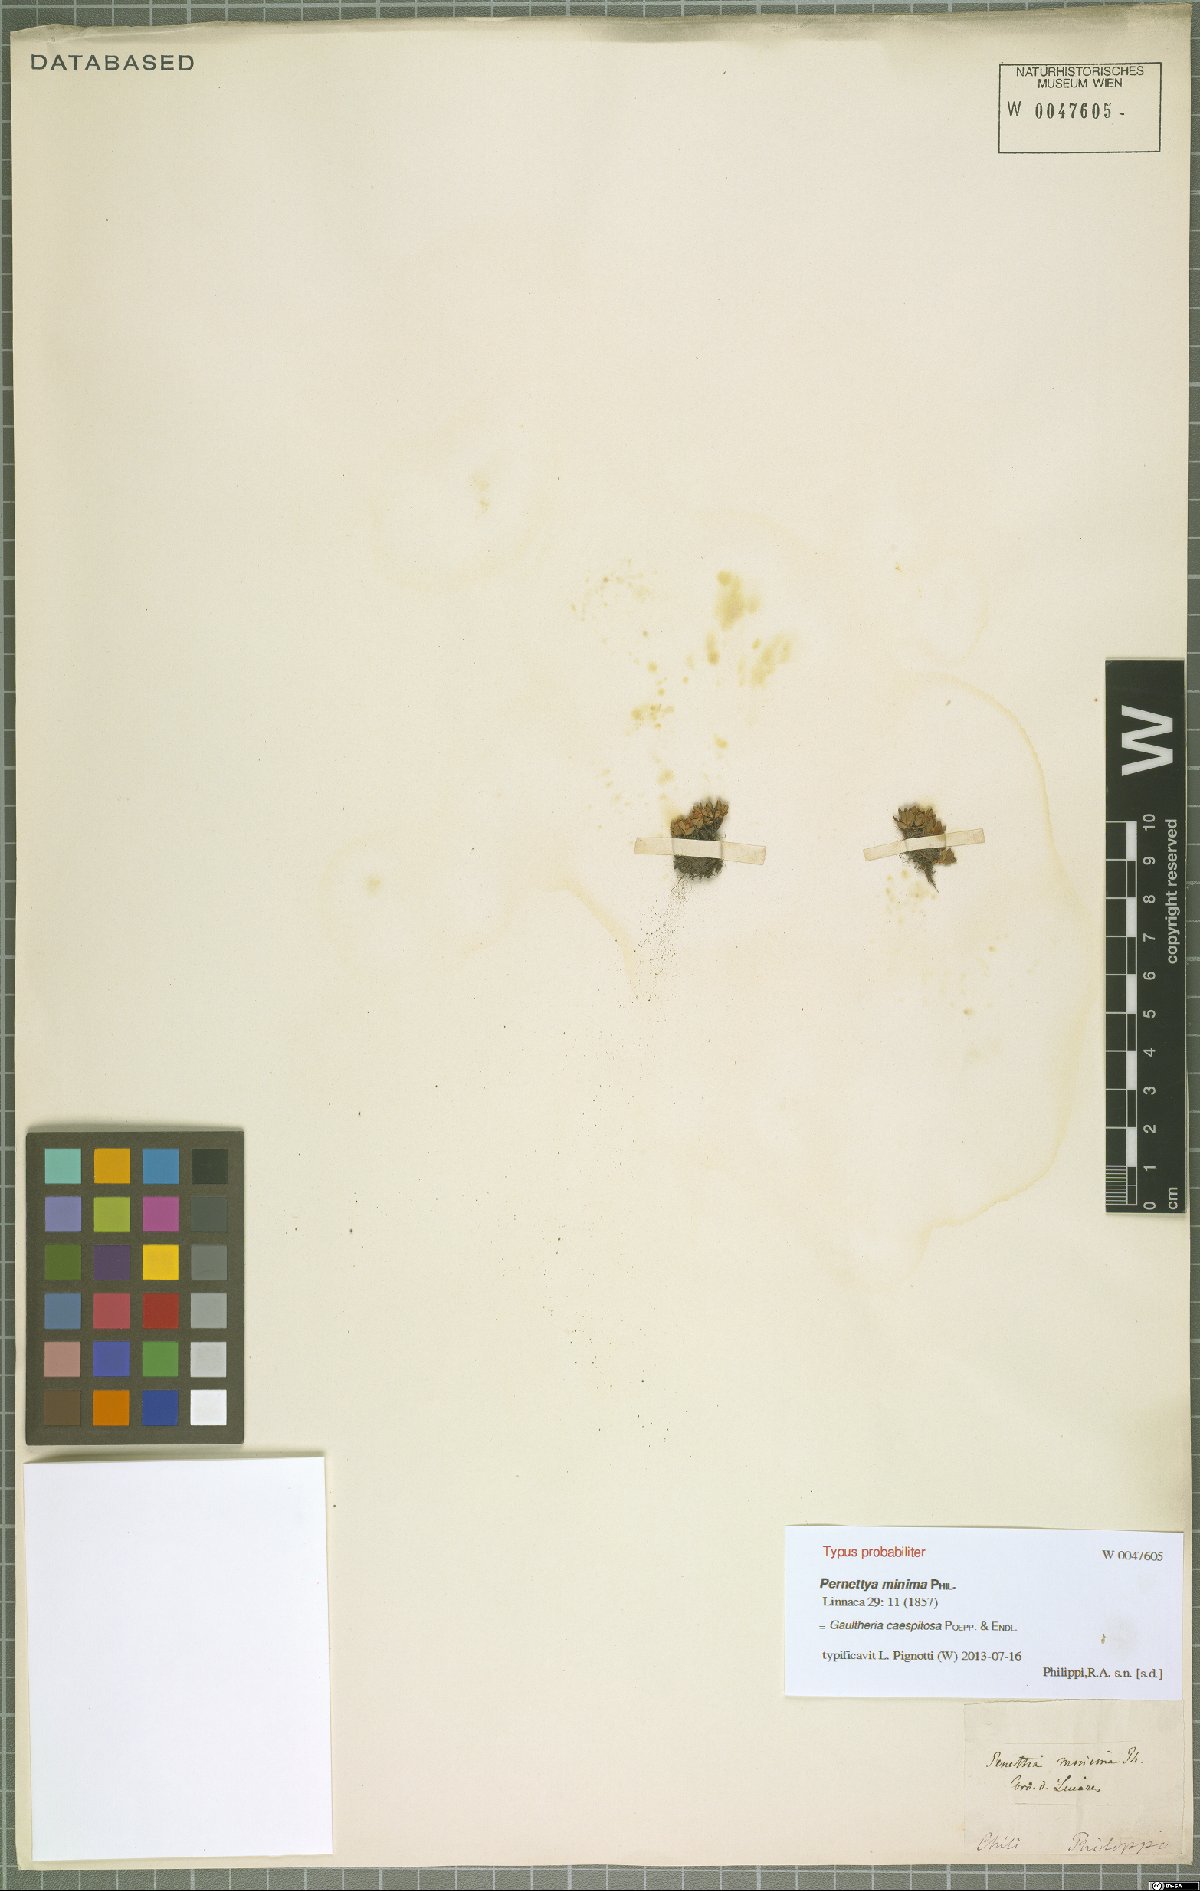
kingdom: Plantae
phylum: Tracheophyta
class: Magnoliopsida
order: Ericales
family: Ericaceae
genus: Gaultheria
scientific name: Gaultheria caespitosa
